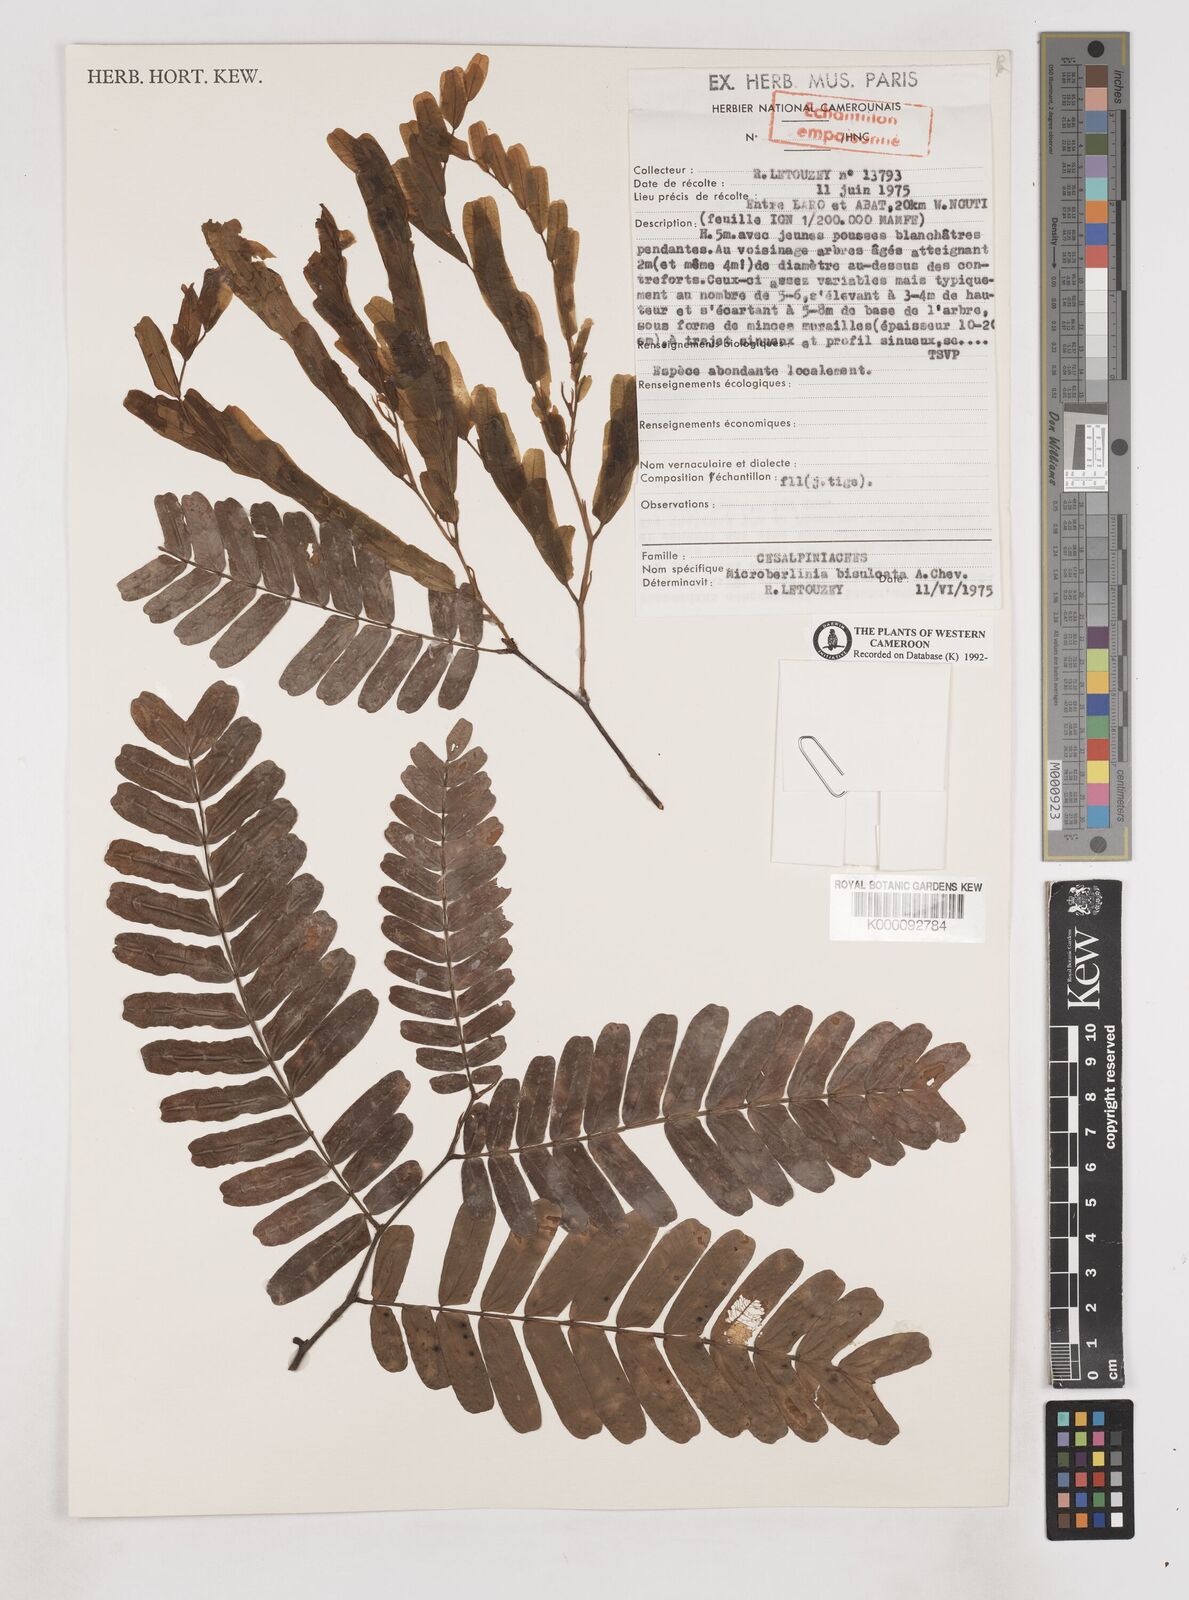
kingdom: Plantae
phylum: Tracheophyta
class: Magnoliopsida
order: Fabales
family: Fabaceae
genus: Microberlinia
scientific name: Microberlinia bisulcata
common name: Zingana
